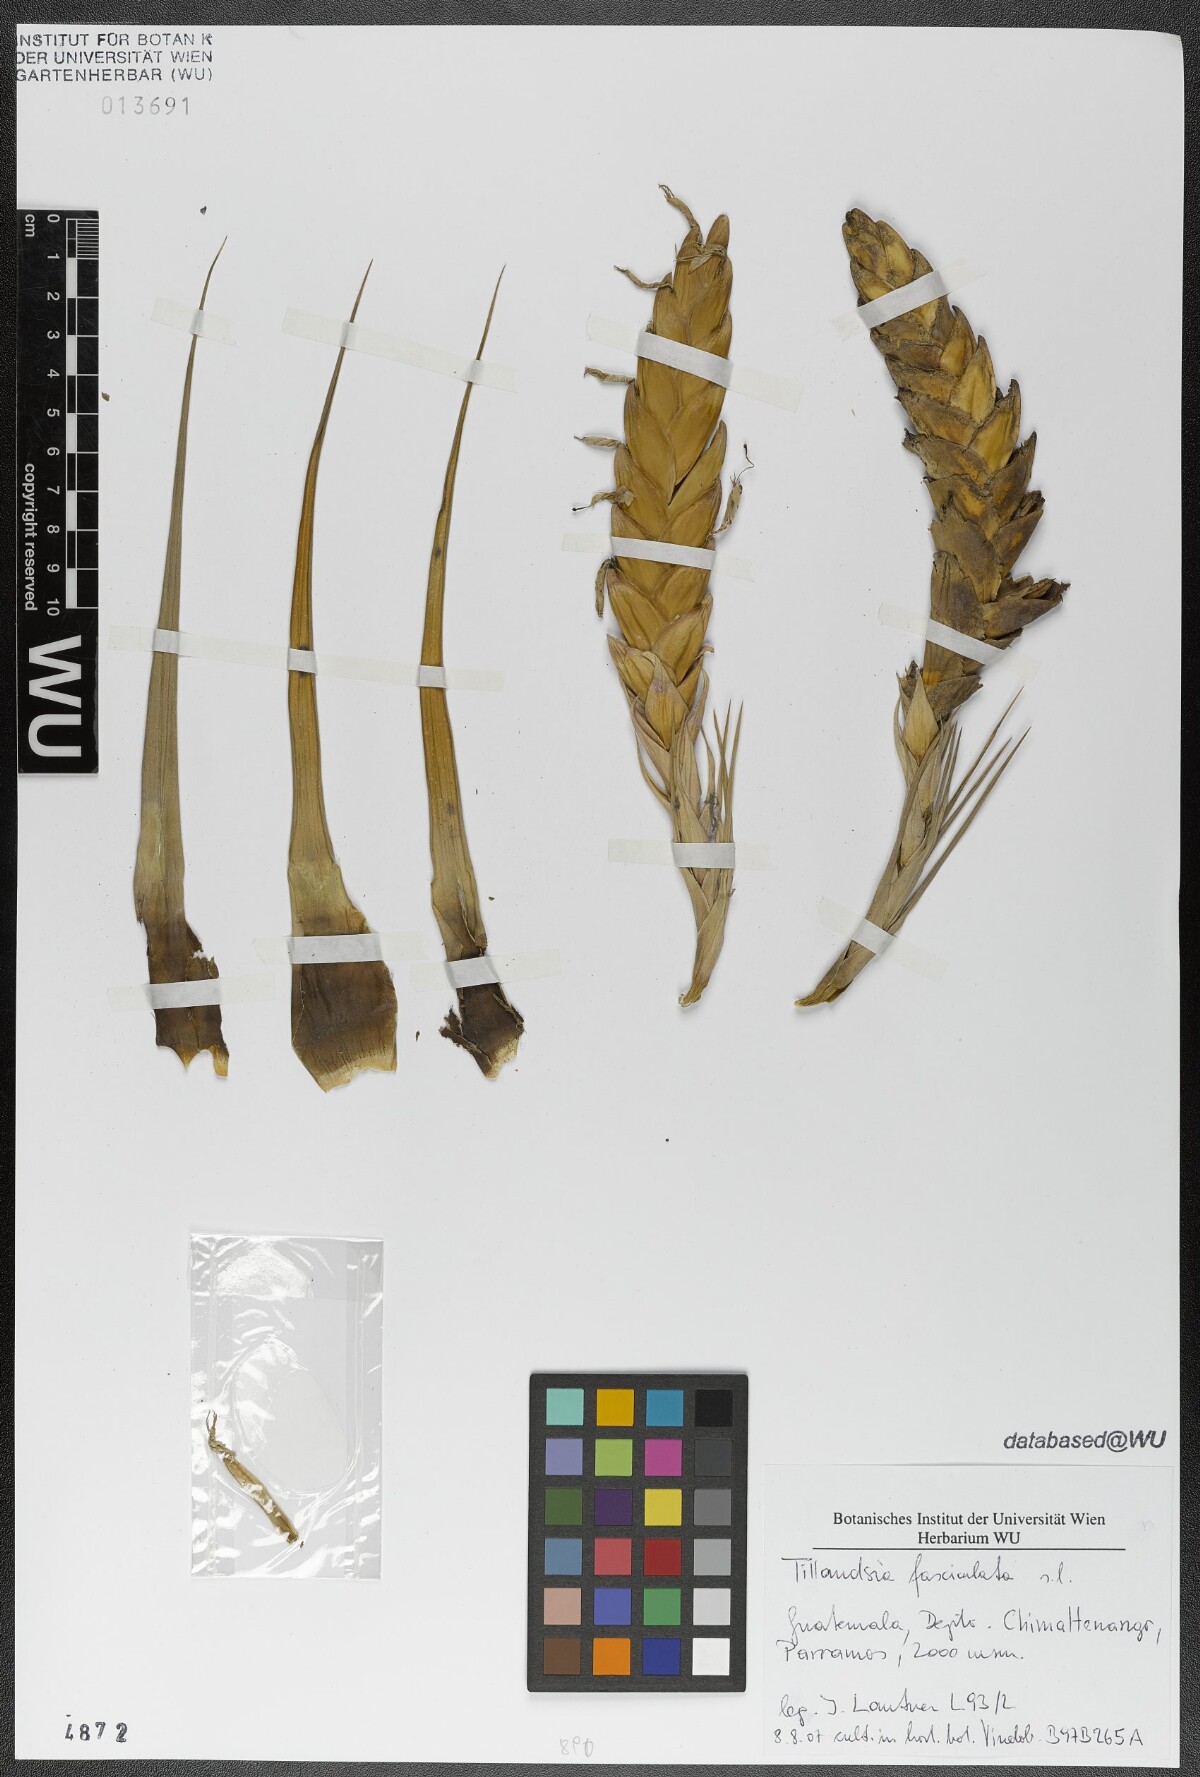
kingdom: Plantae
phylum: Tracheophyta
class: Liliopsida
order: Poales
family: Bromeliaceae
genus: Tillandsia
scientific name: Tillandsia fasciculata
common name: Giant airplant
